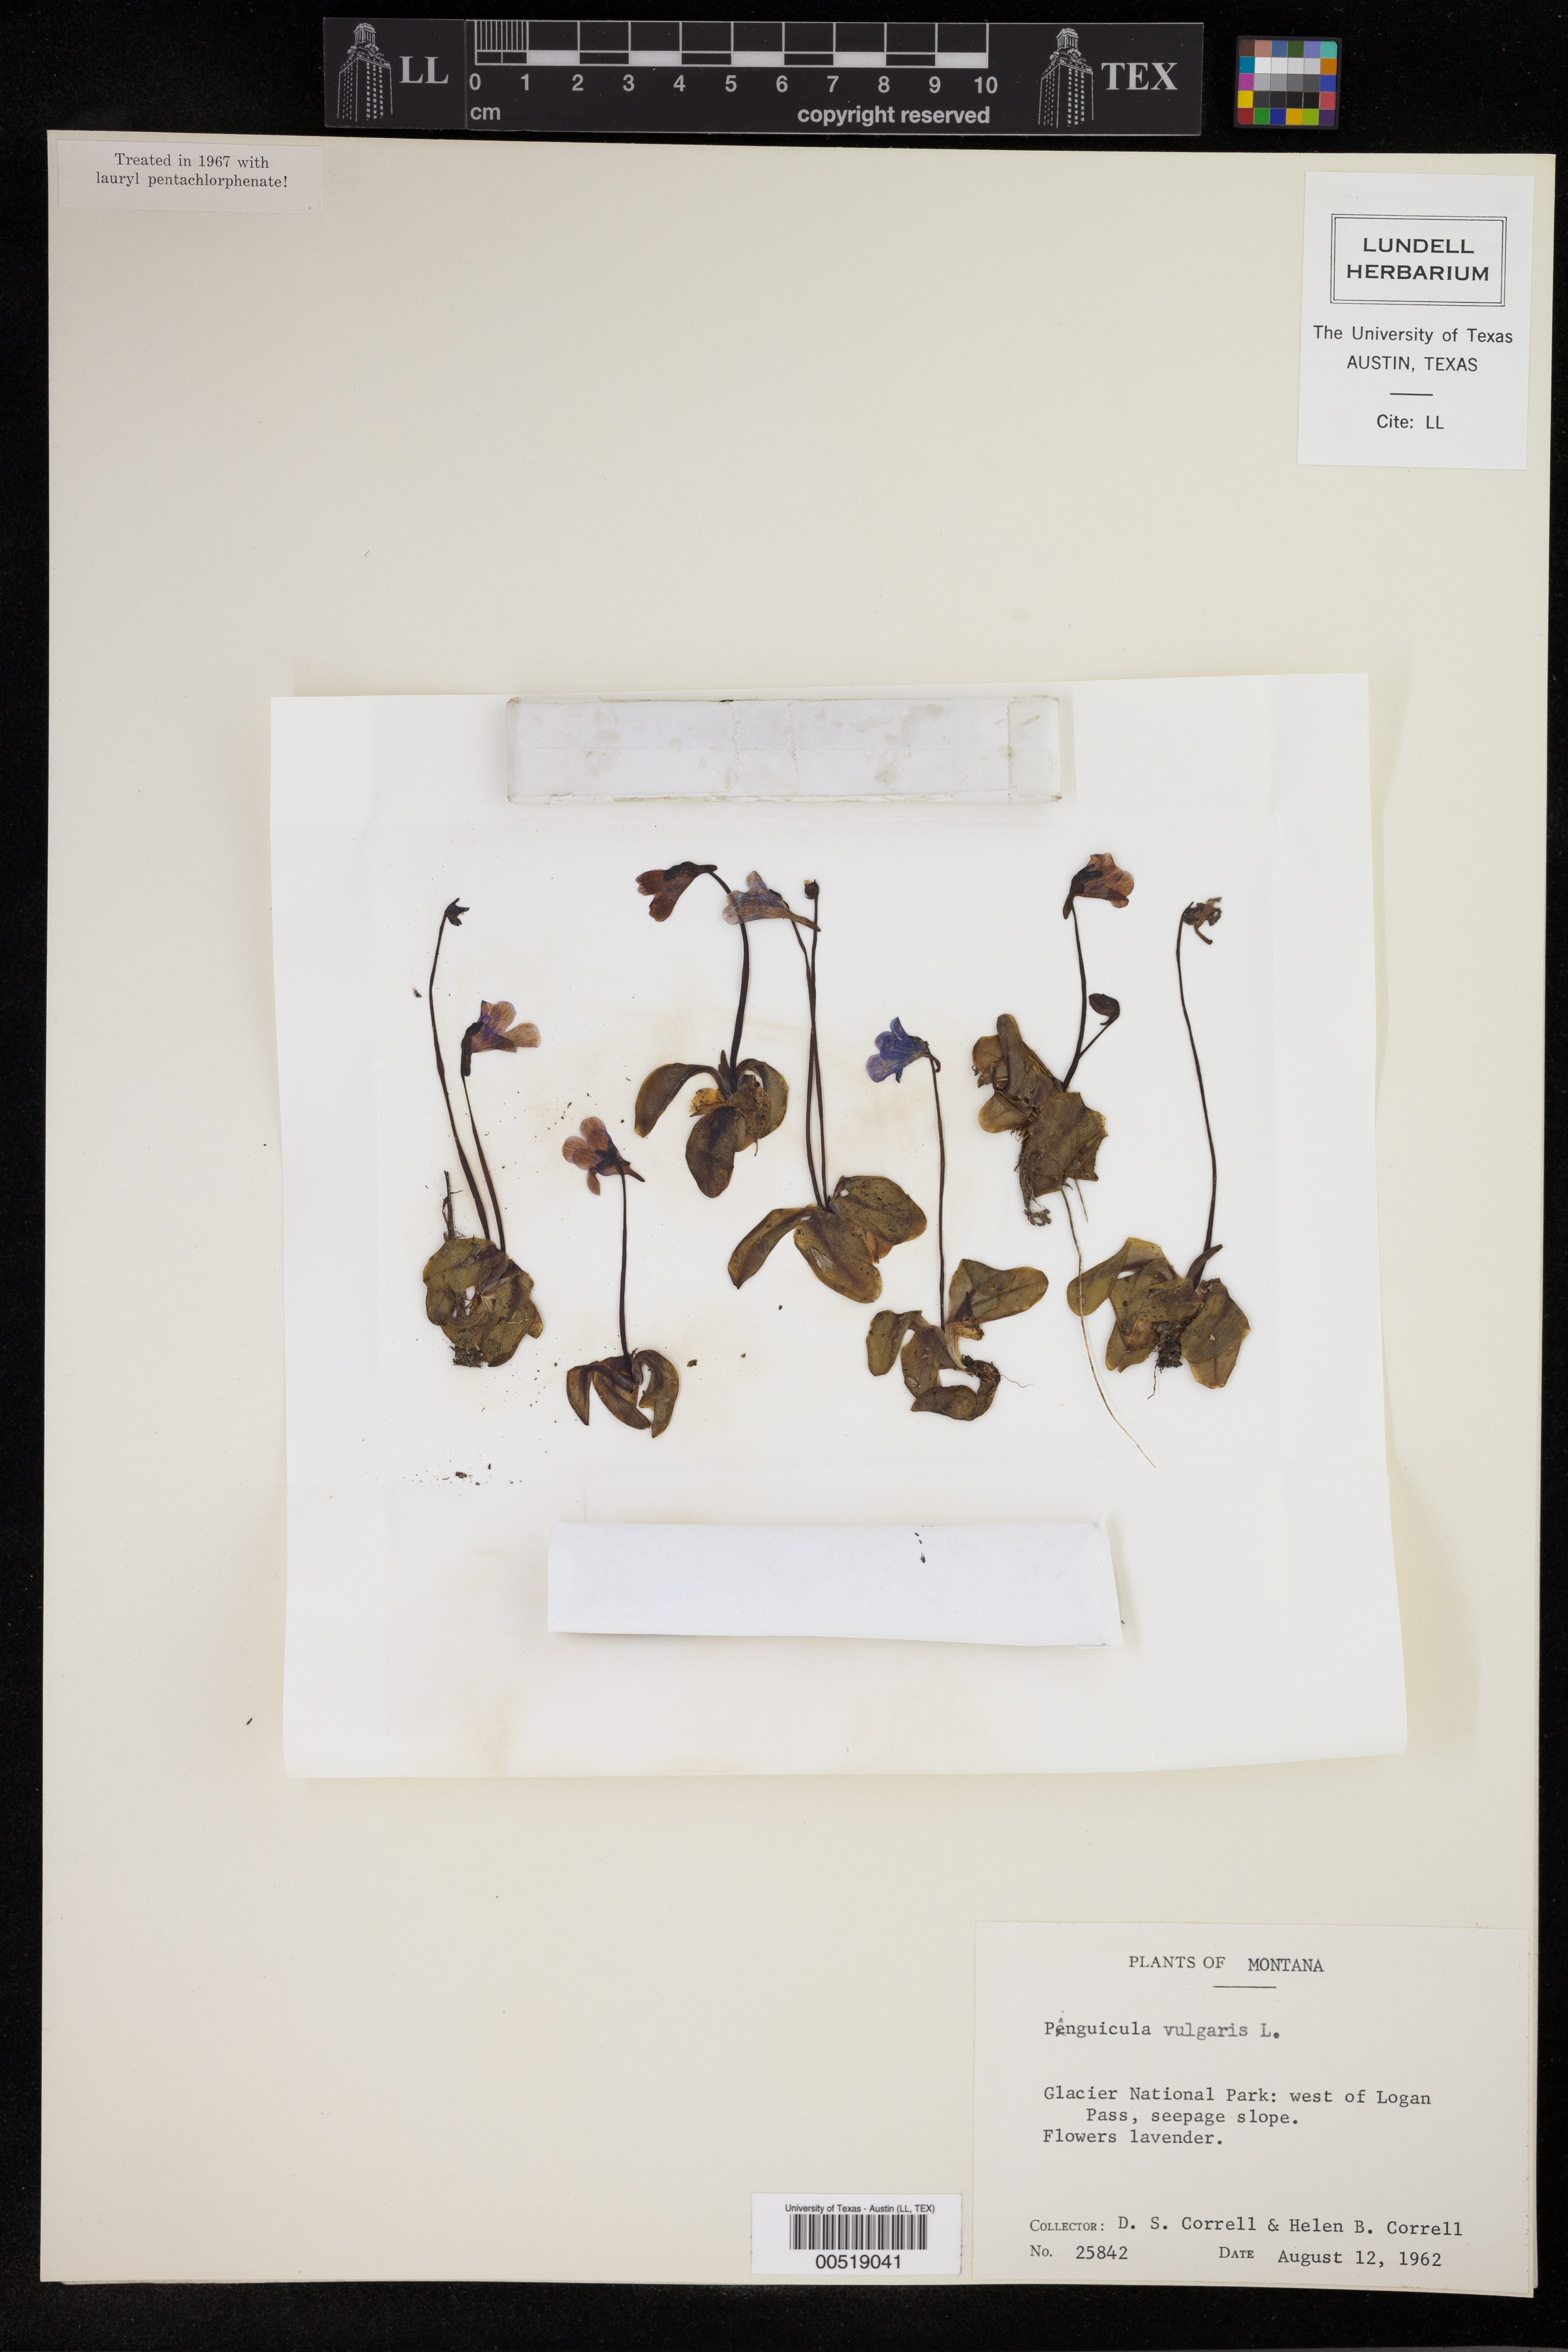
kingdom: Plantae
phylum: Tracheophyta
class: Magnoliopsida
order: Lamiales
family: Lentibulariaceae
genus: Pinguicula
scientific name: Pinguicula vulgaris
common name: Common butterwort
